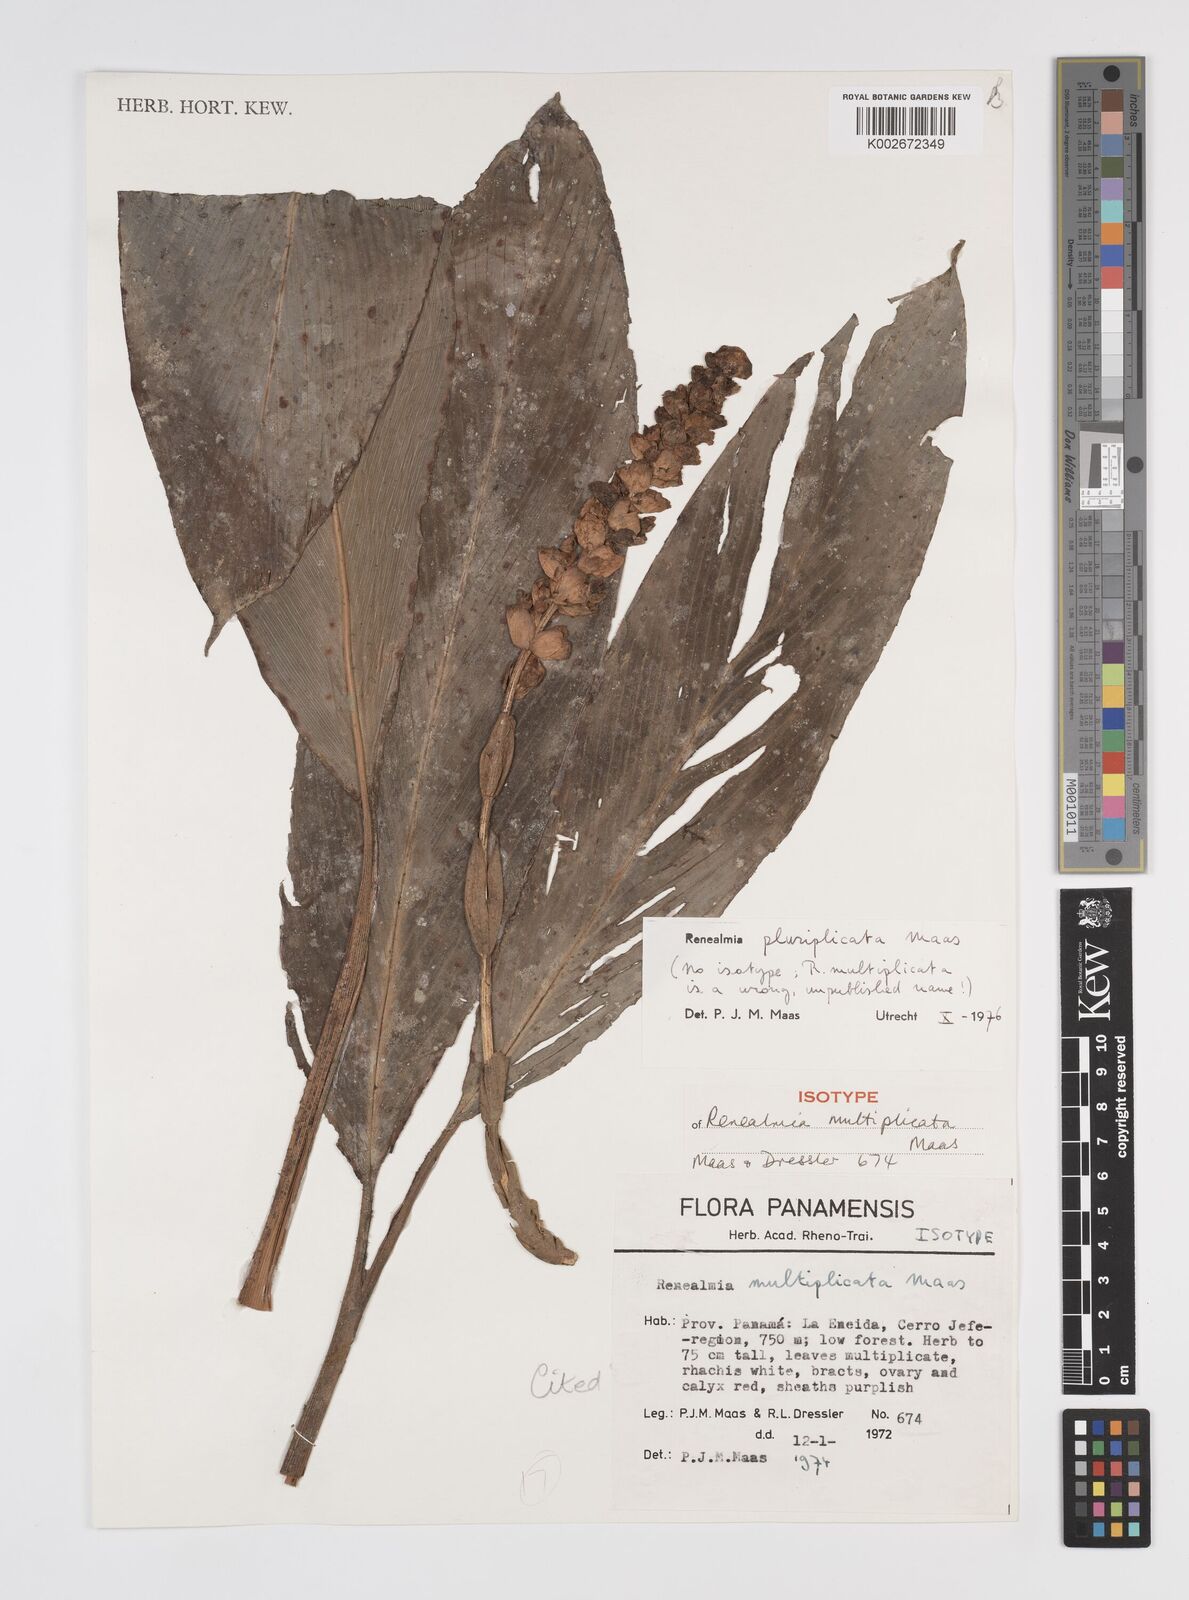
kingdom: Plantae
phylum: Tracheophyta
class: Liliopsida
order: Zingiberales
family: Zingiberaceae
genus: Renealmia
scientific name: Renealmia pluriplicata
